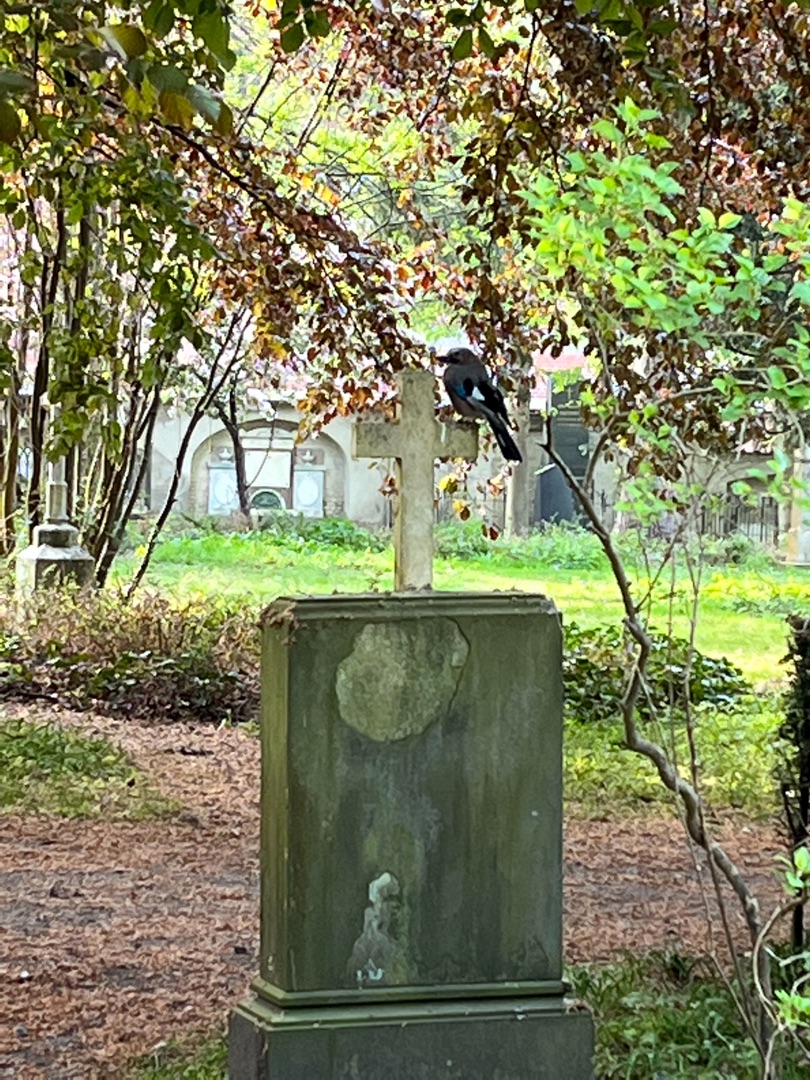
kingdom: Animalia
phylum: Chordata
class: Aves
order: Passeriformes
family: Corvidae
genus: Garrulus
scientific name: Garrulus glandarius
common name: Skovskade
